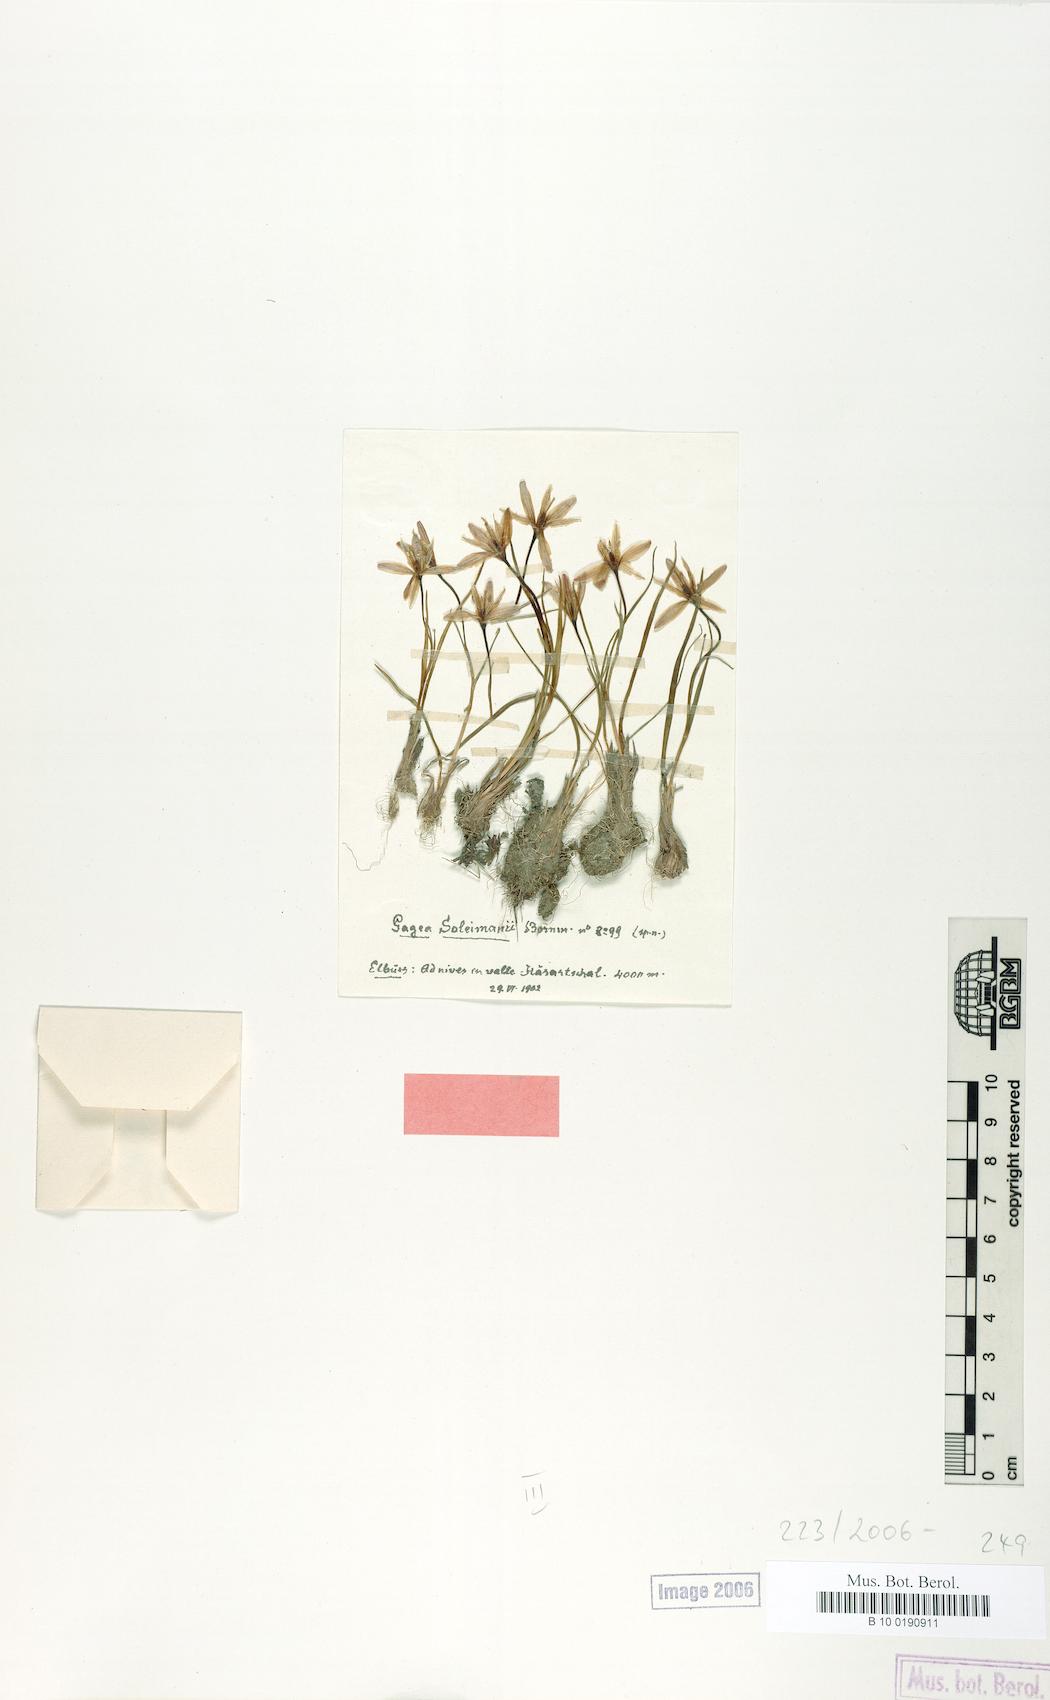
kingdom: Plantae
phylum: Tracheophyta
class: Liliopsida
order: Liliales
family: Liliaceae
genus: Gagea
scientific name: Gagea uliginosa
